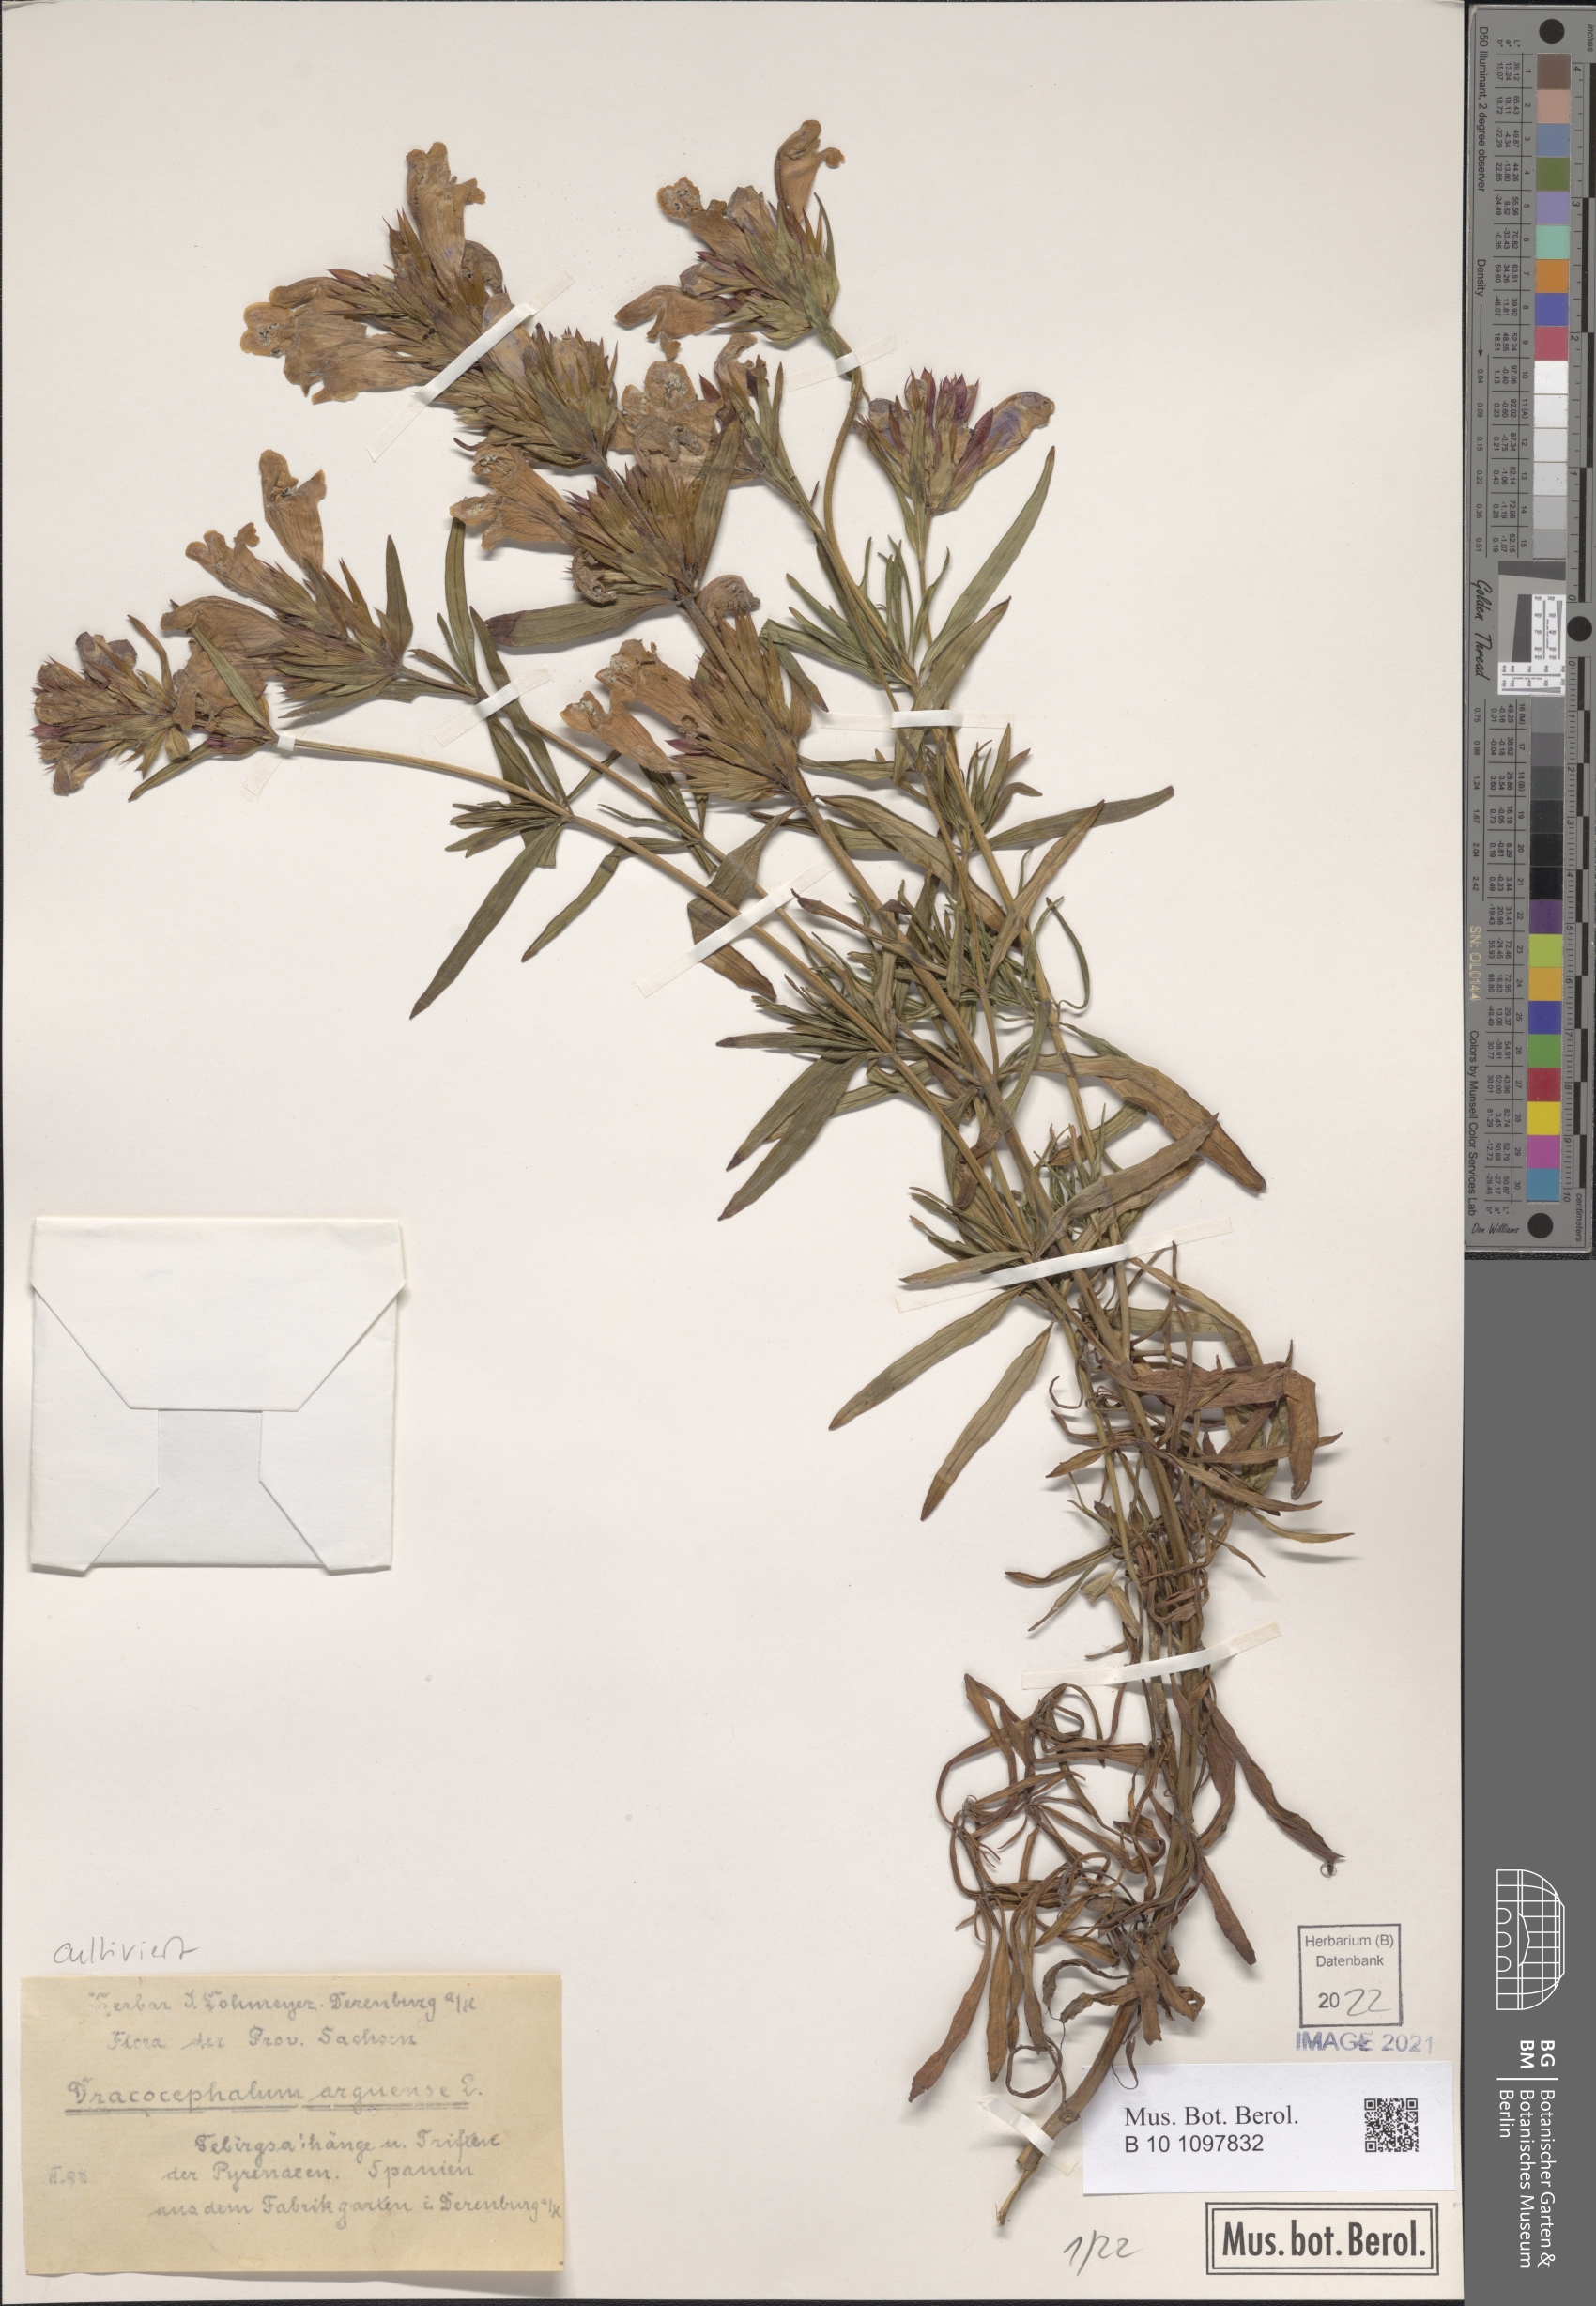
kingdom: Plantae
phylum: Tracheophyta
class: Magnoliopsida
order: Lamiales
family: Lamiaceae
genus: Dracocephalum
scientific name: Dracocephalum argunense
